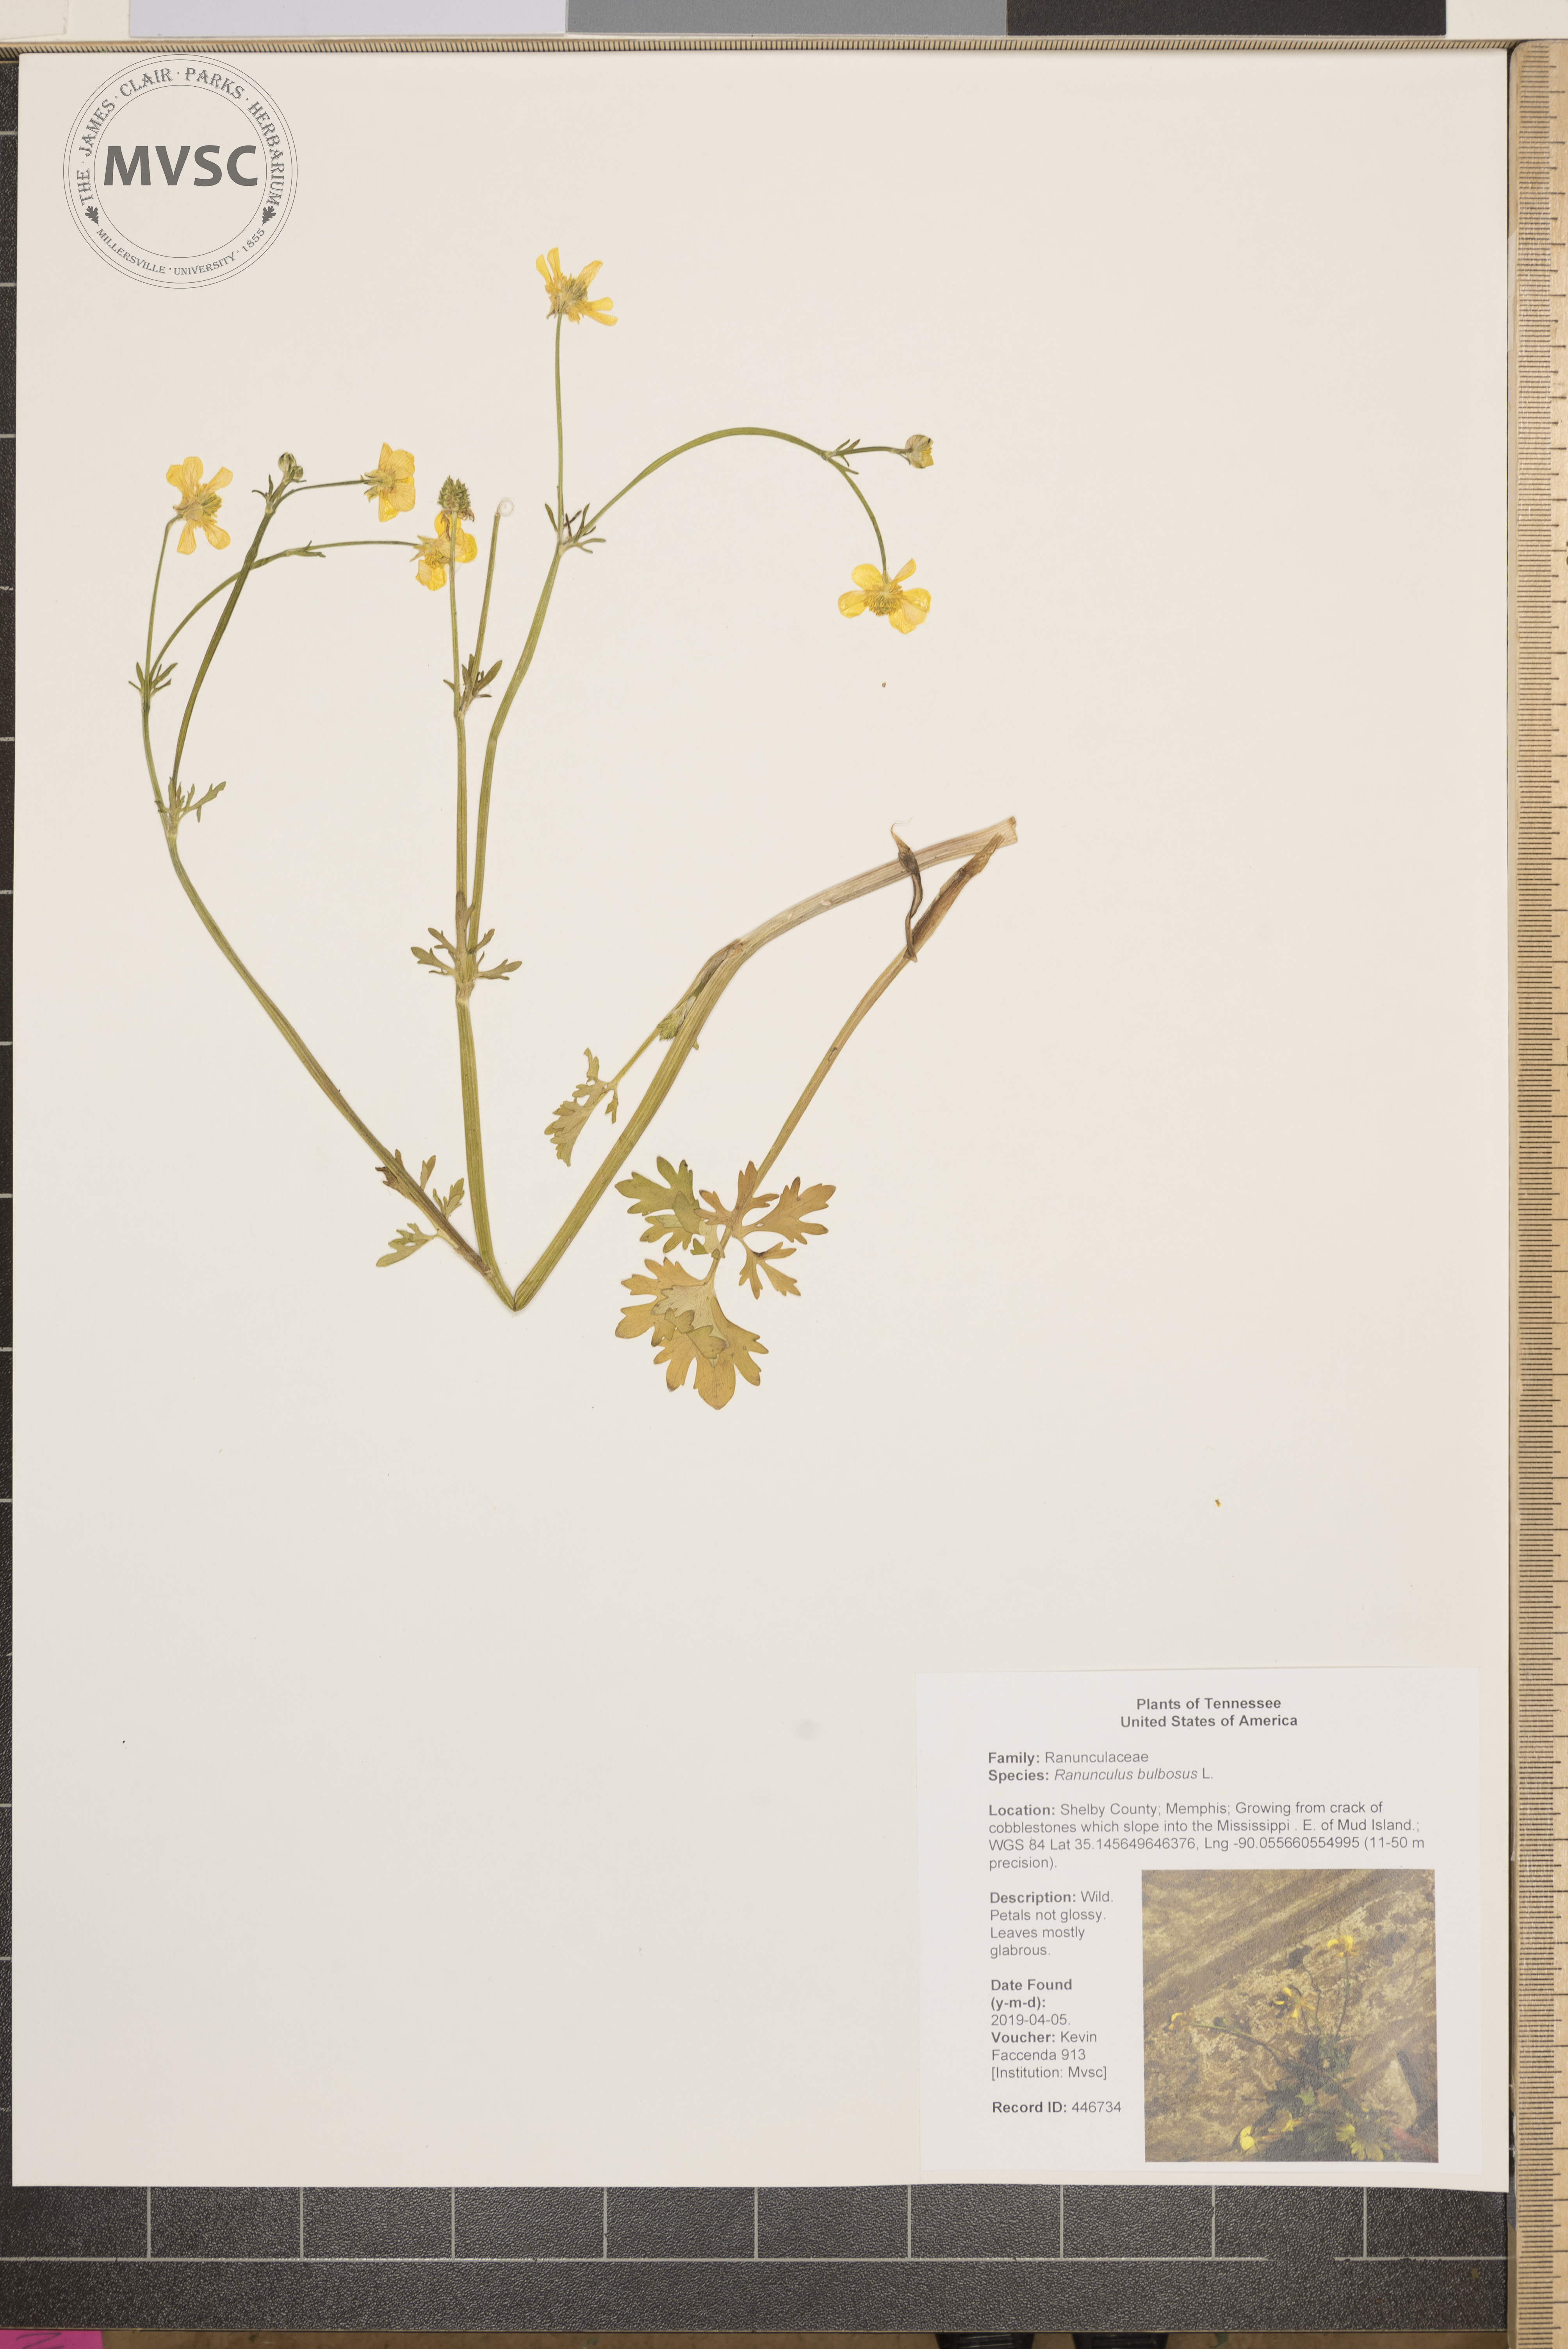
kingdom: Plantae
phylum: Tracheophyta
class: Magnoliopsida
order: Ranunculales
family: Ranunculaceae
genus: Ranunculus
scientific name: Ranunculus bulbosus
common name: Bulbous buttercup
